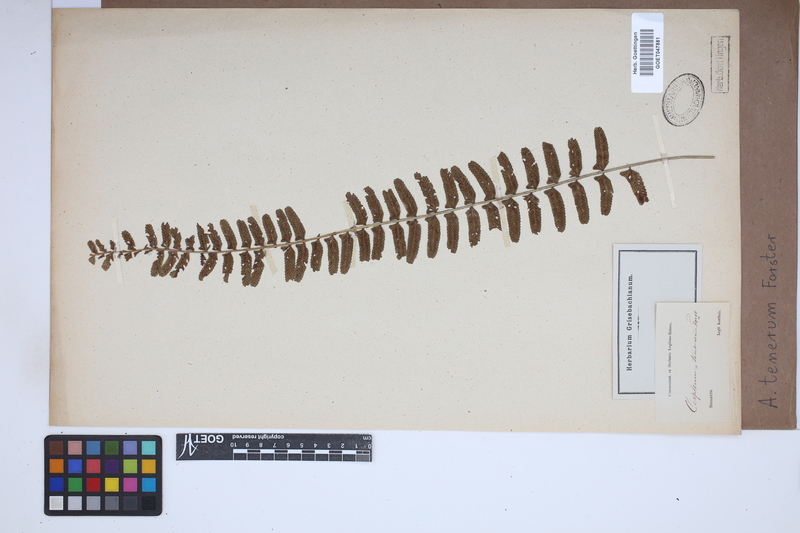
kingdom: Plantae
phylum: Tracheophyta
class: Polypodiopsida
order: Polypodiales
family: Aspleniaceae
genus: Asplenium
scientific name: Asplenium tenerum
